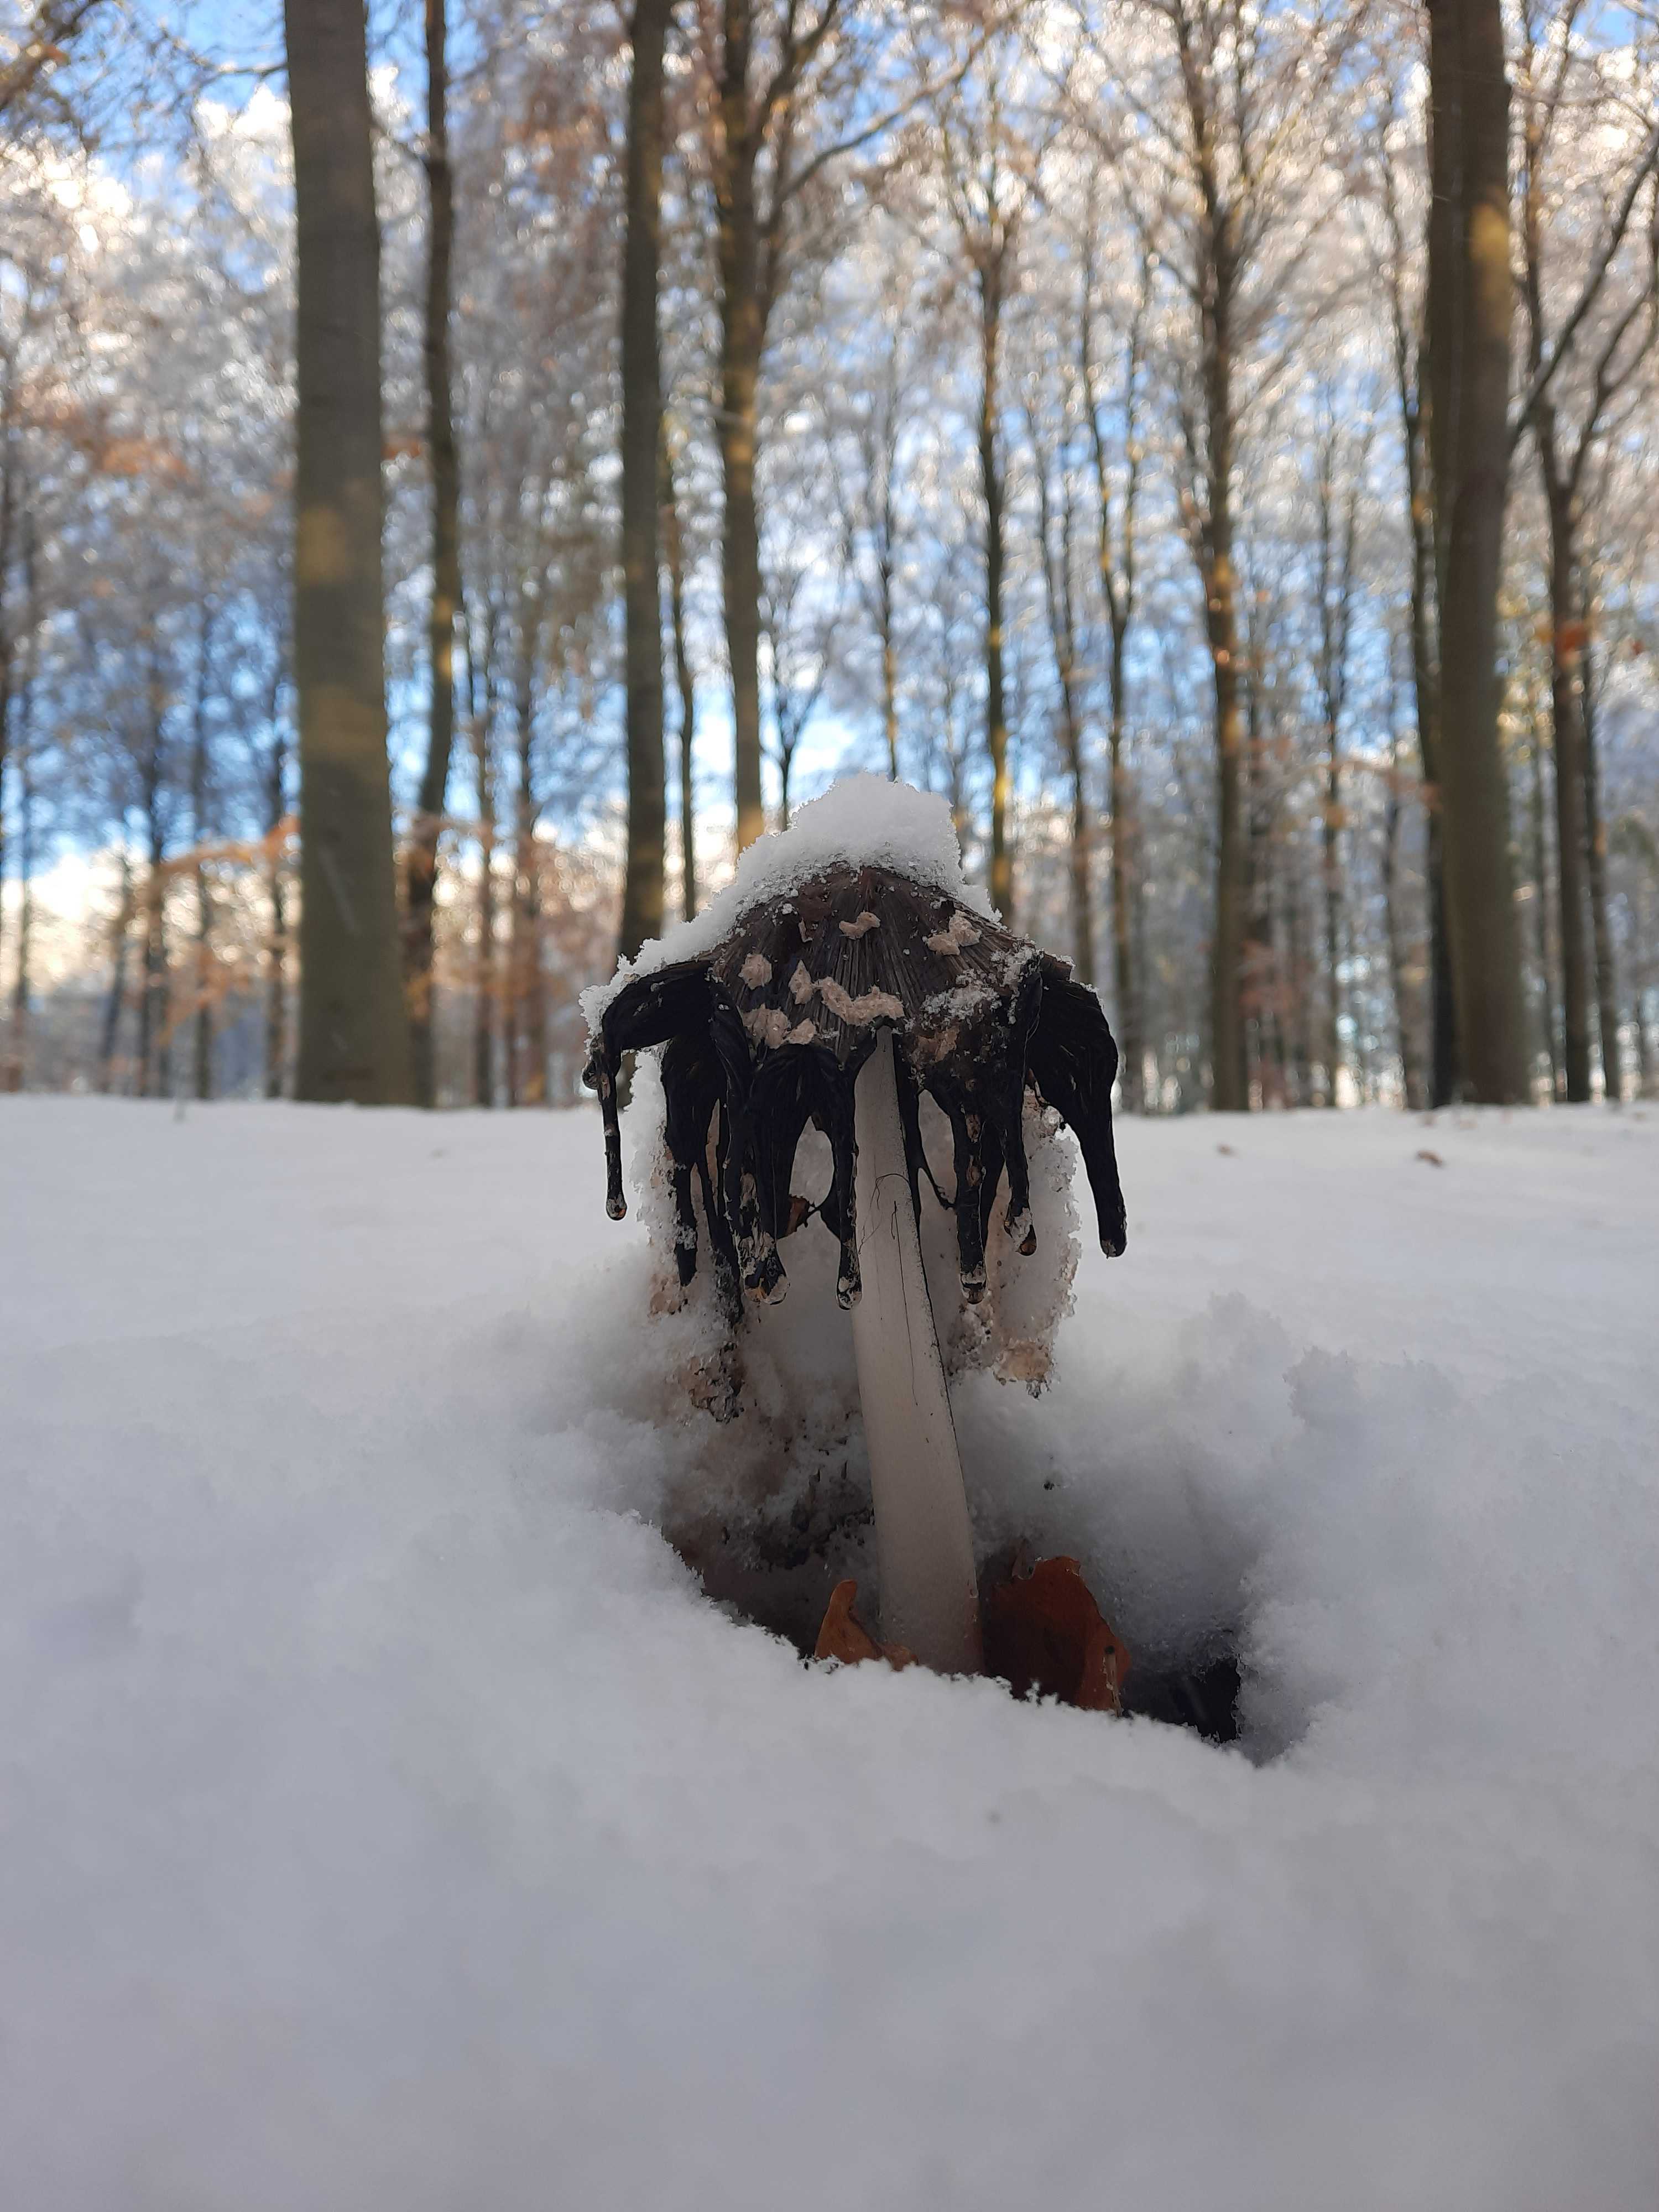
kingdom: Fungi
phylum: Basidiomycota
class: Agaricomycetes
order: Agaricales
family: Psathyrellaceae
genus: Coprinopsis
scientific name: Coprinopsis picacea
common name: skade-blækhat
